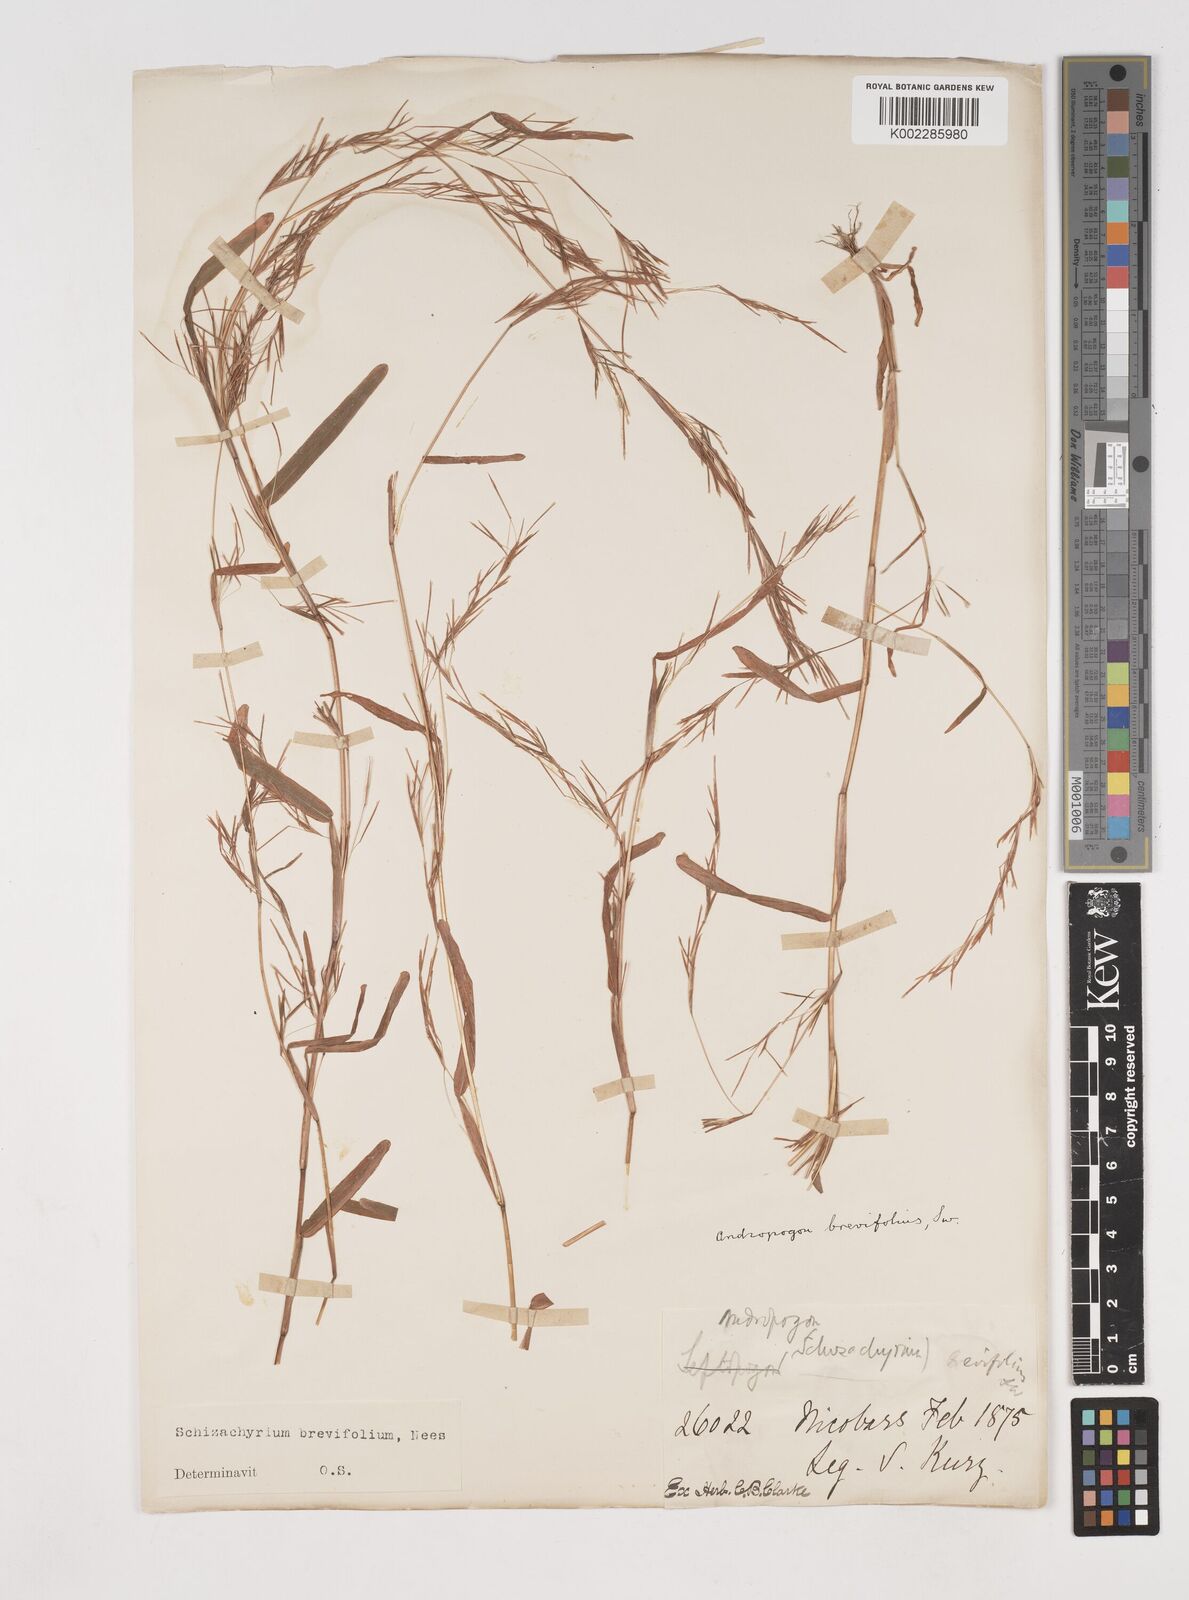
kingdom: Plantae
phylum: Tracheophyta
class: Liliopsida
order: Poales
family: Poaceae
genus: Schizachyrium
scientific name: Schizachyrium brevifolium
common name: Serillo dulce
